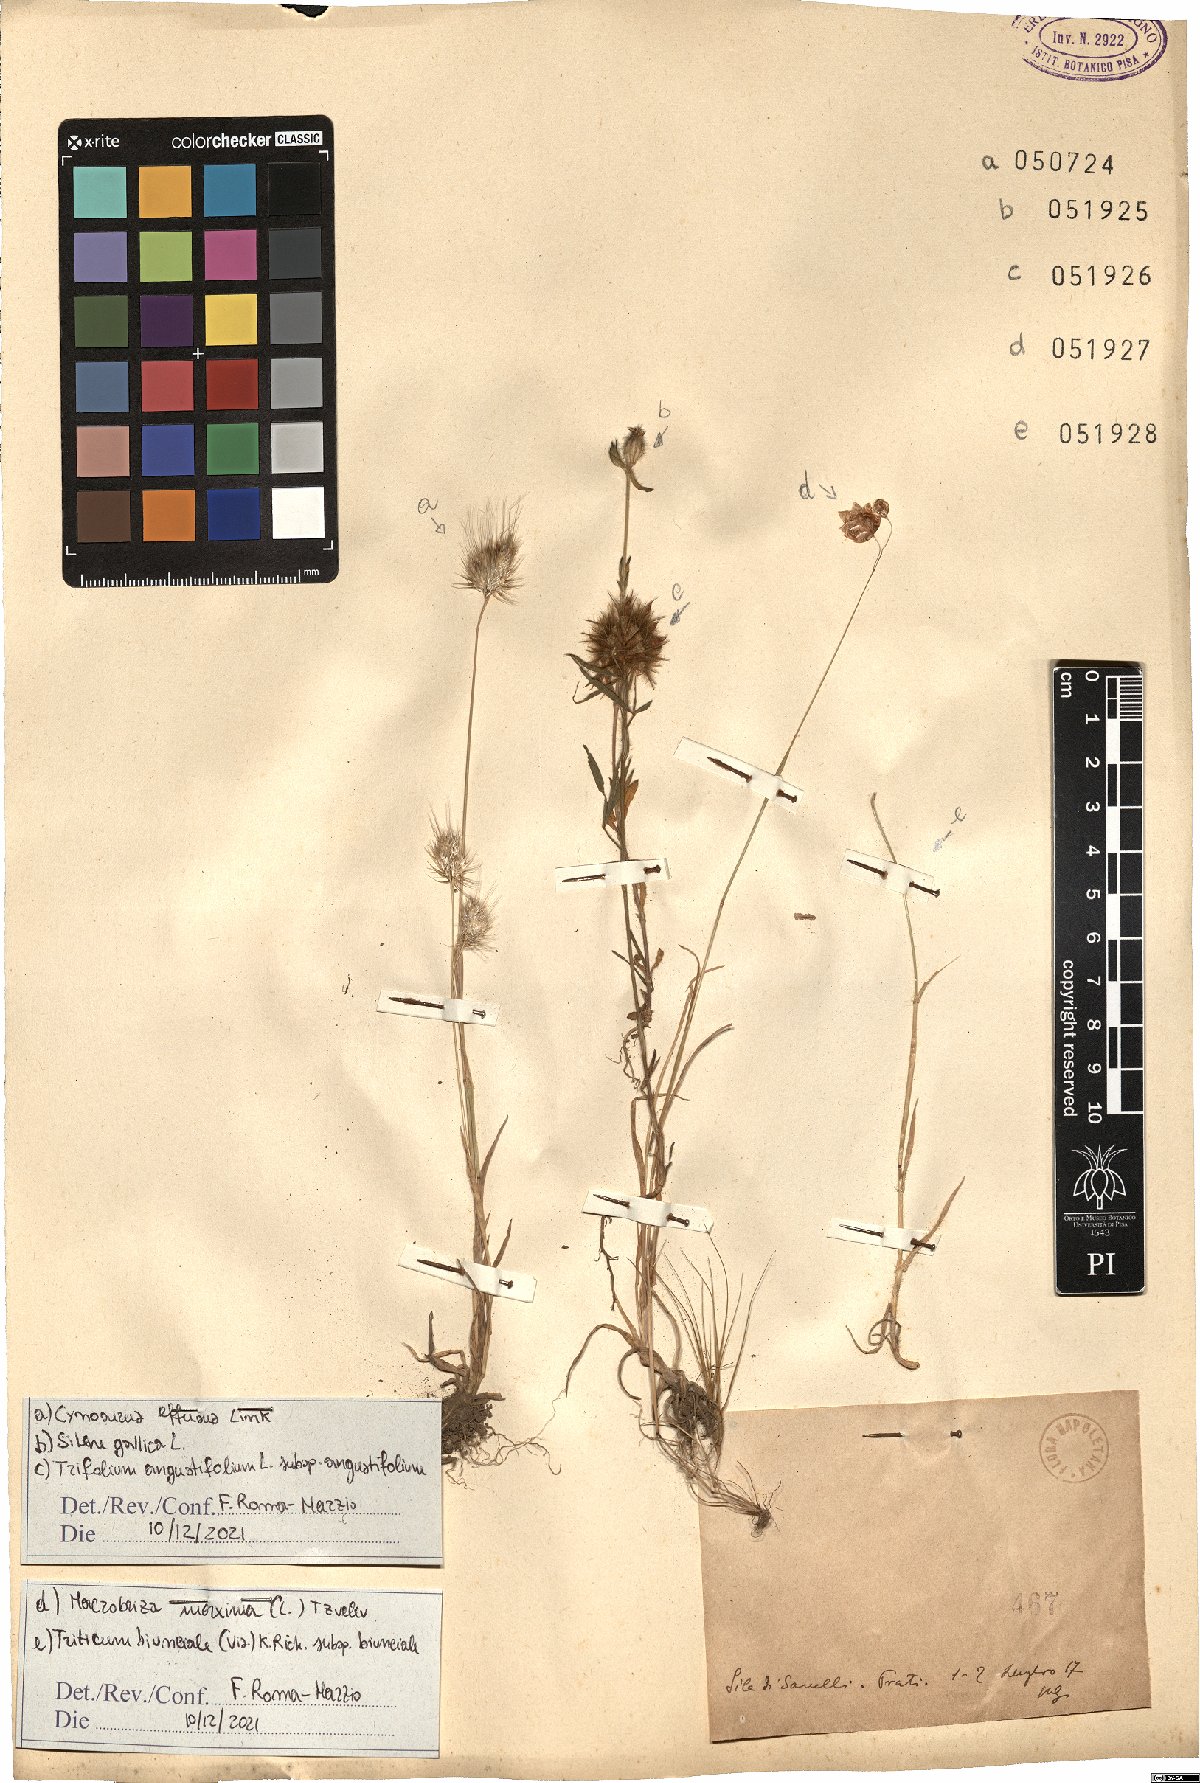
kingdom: Plantae
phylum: Tracheophyta
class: Liliopsida
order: Poales
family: Poaceae
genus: Cynosurus
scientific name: Cynosurus effusus
